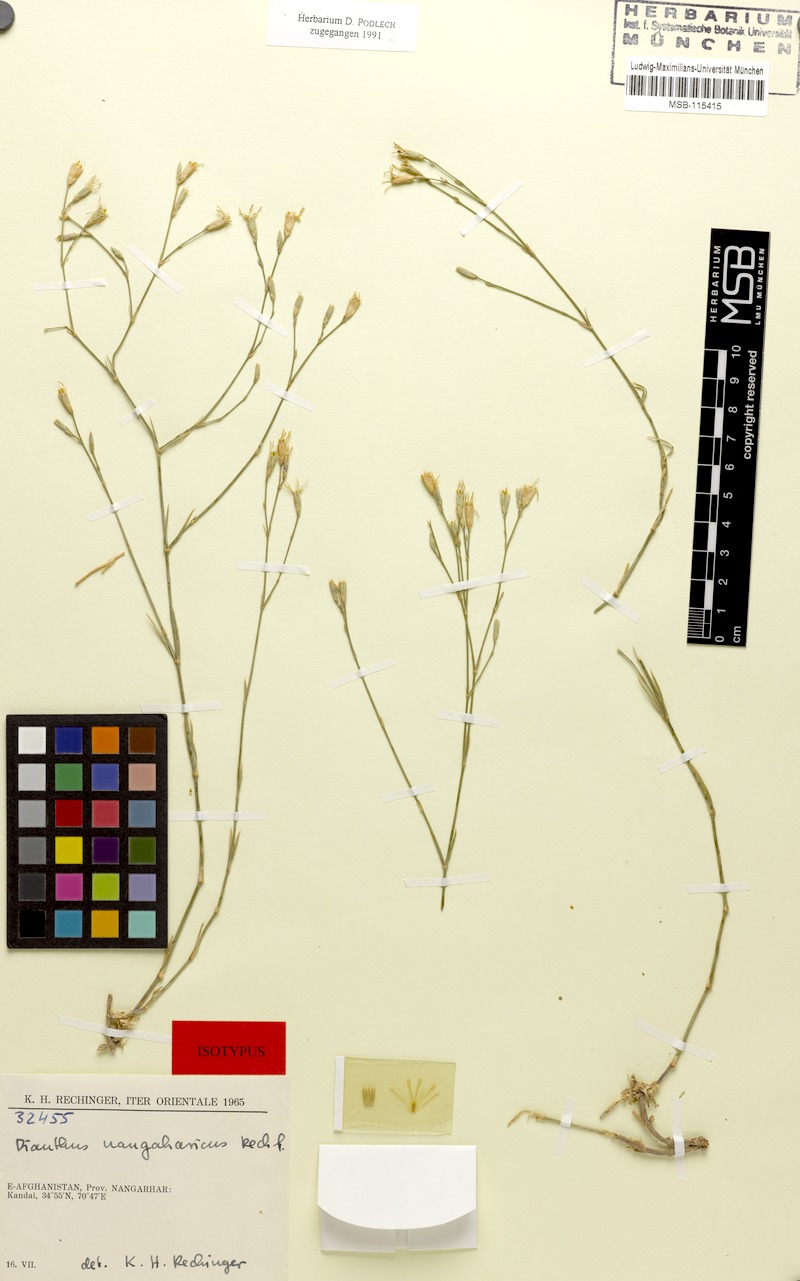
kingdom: Plantae
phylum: Tracheophyta
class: Magnoliopsida
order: Caryophyllales
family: Caryophyllaceae
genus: Dianthus
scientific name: Dianthus nangarharicus
